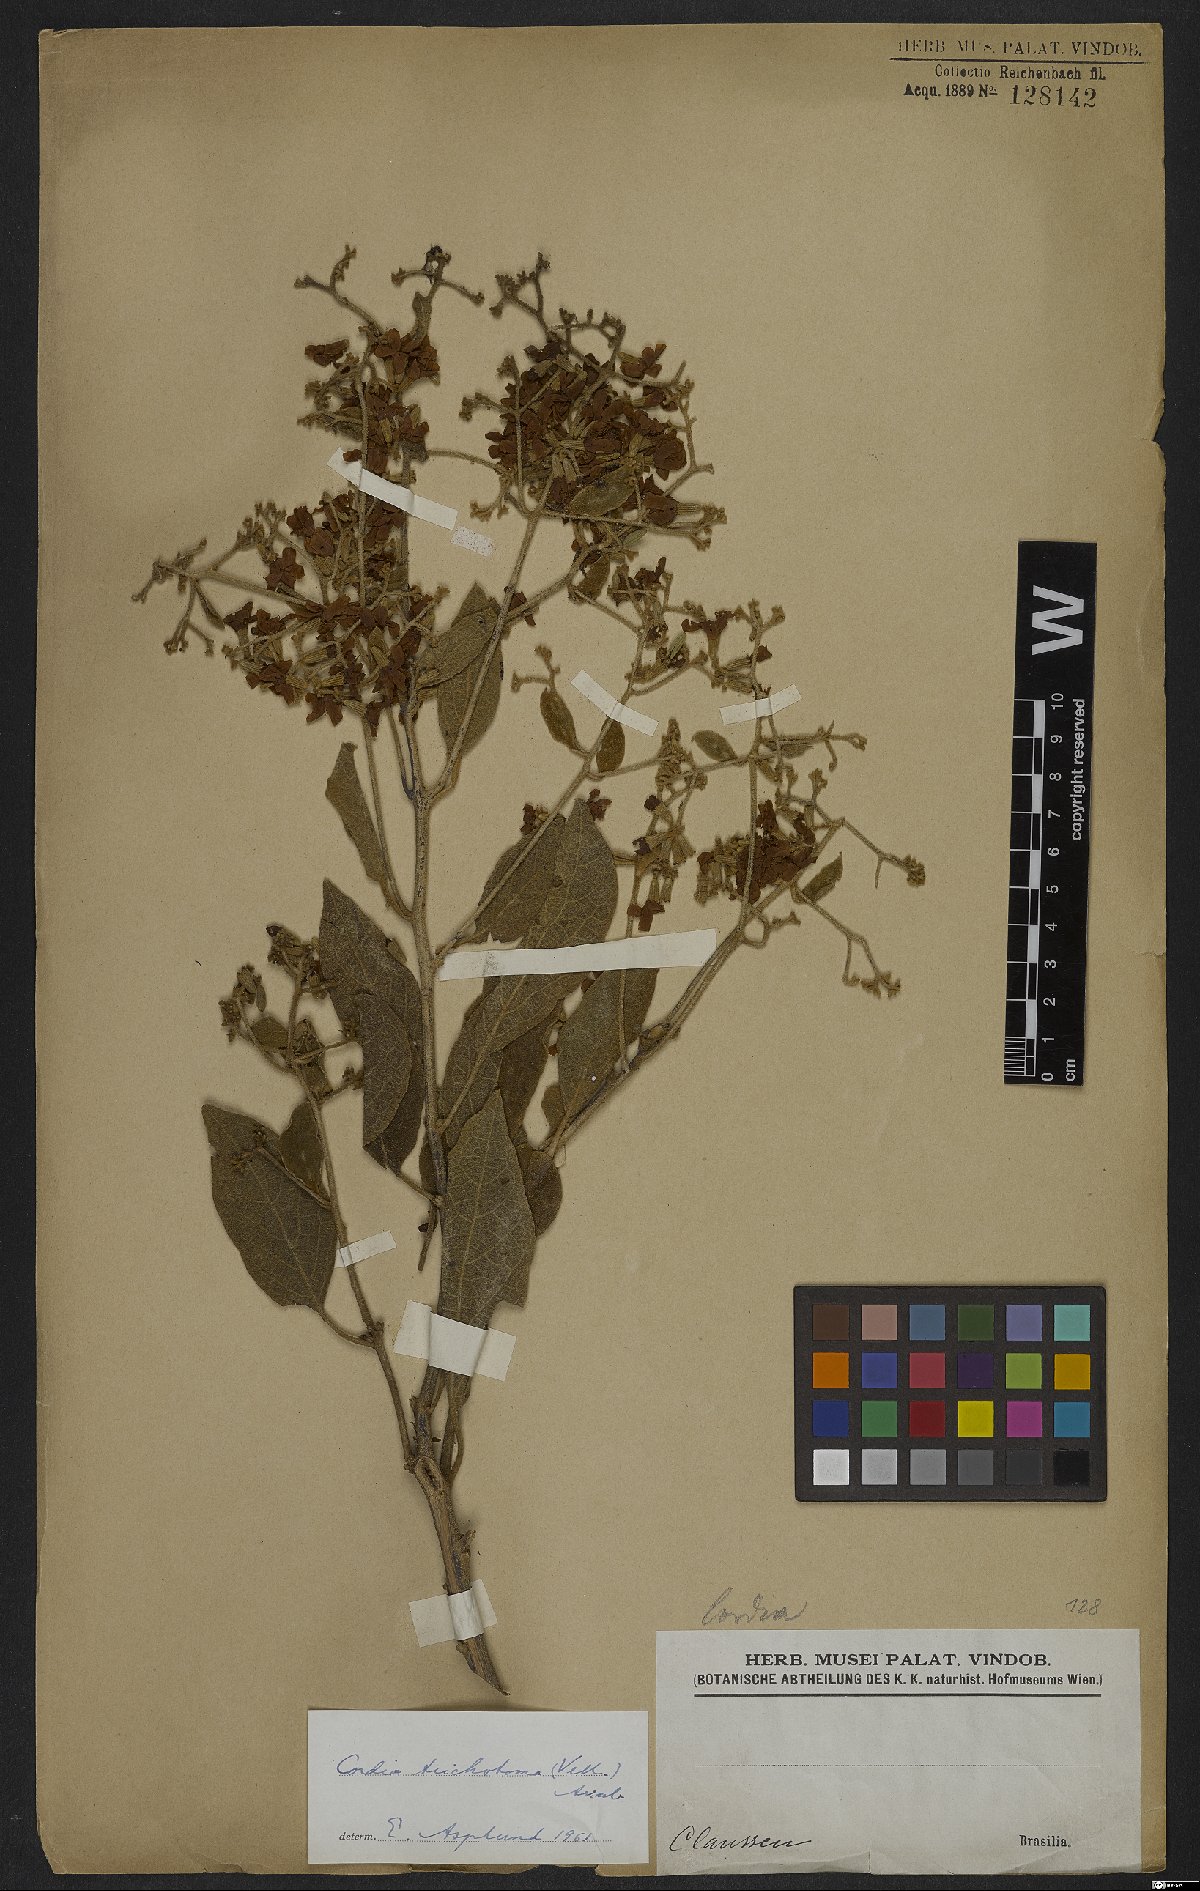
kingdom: Plantae
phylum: Tracheophyta
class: Magnoliopsida
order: Boraginales
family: Cordiaceae
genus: Cordia
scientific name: Cordia trichotoma
